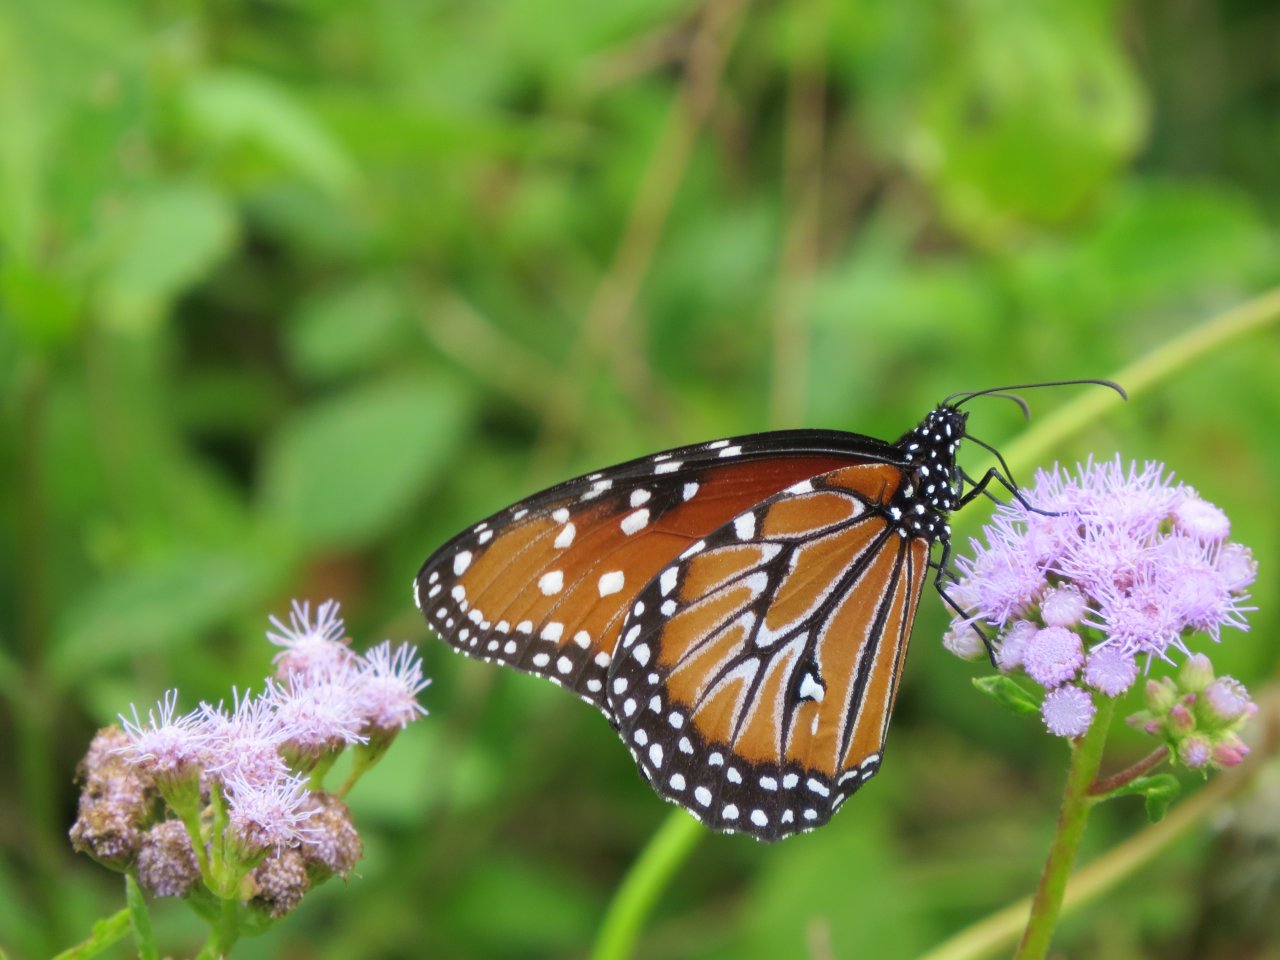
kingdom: Animalia
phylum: Arthropoda
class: Insecta
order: Lepidoptera
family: Nymphalidae
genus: Danaus
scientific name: Danaus gilippus
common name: Queen
